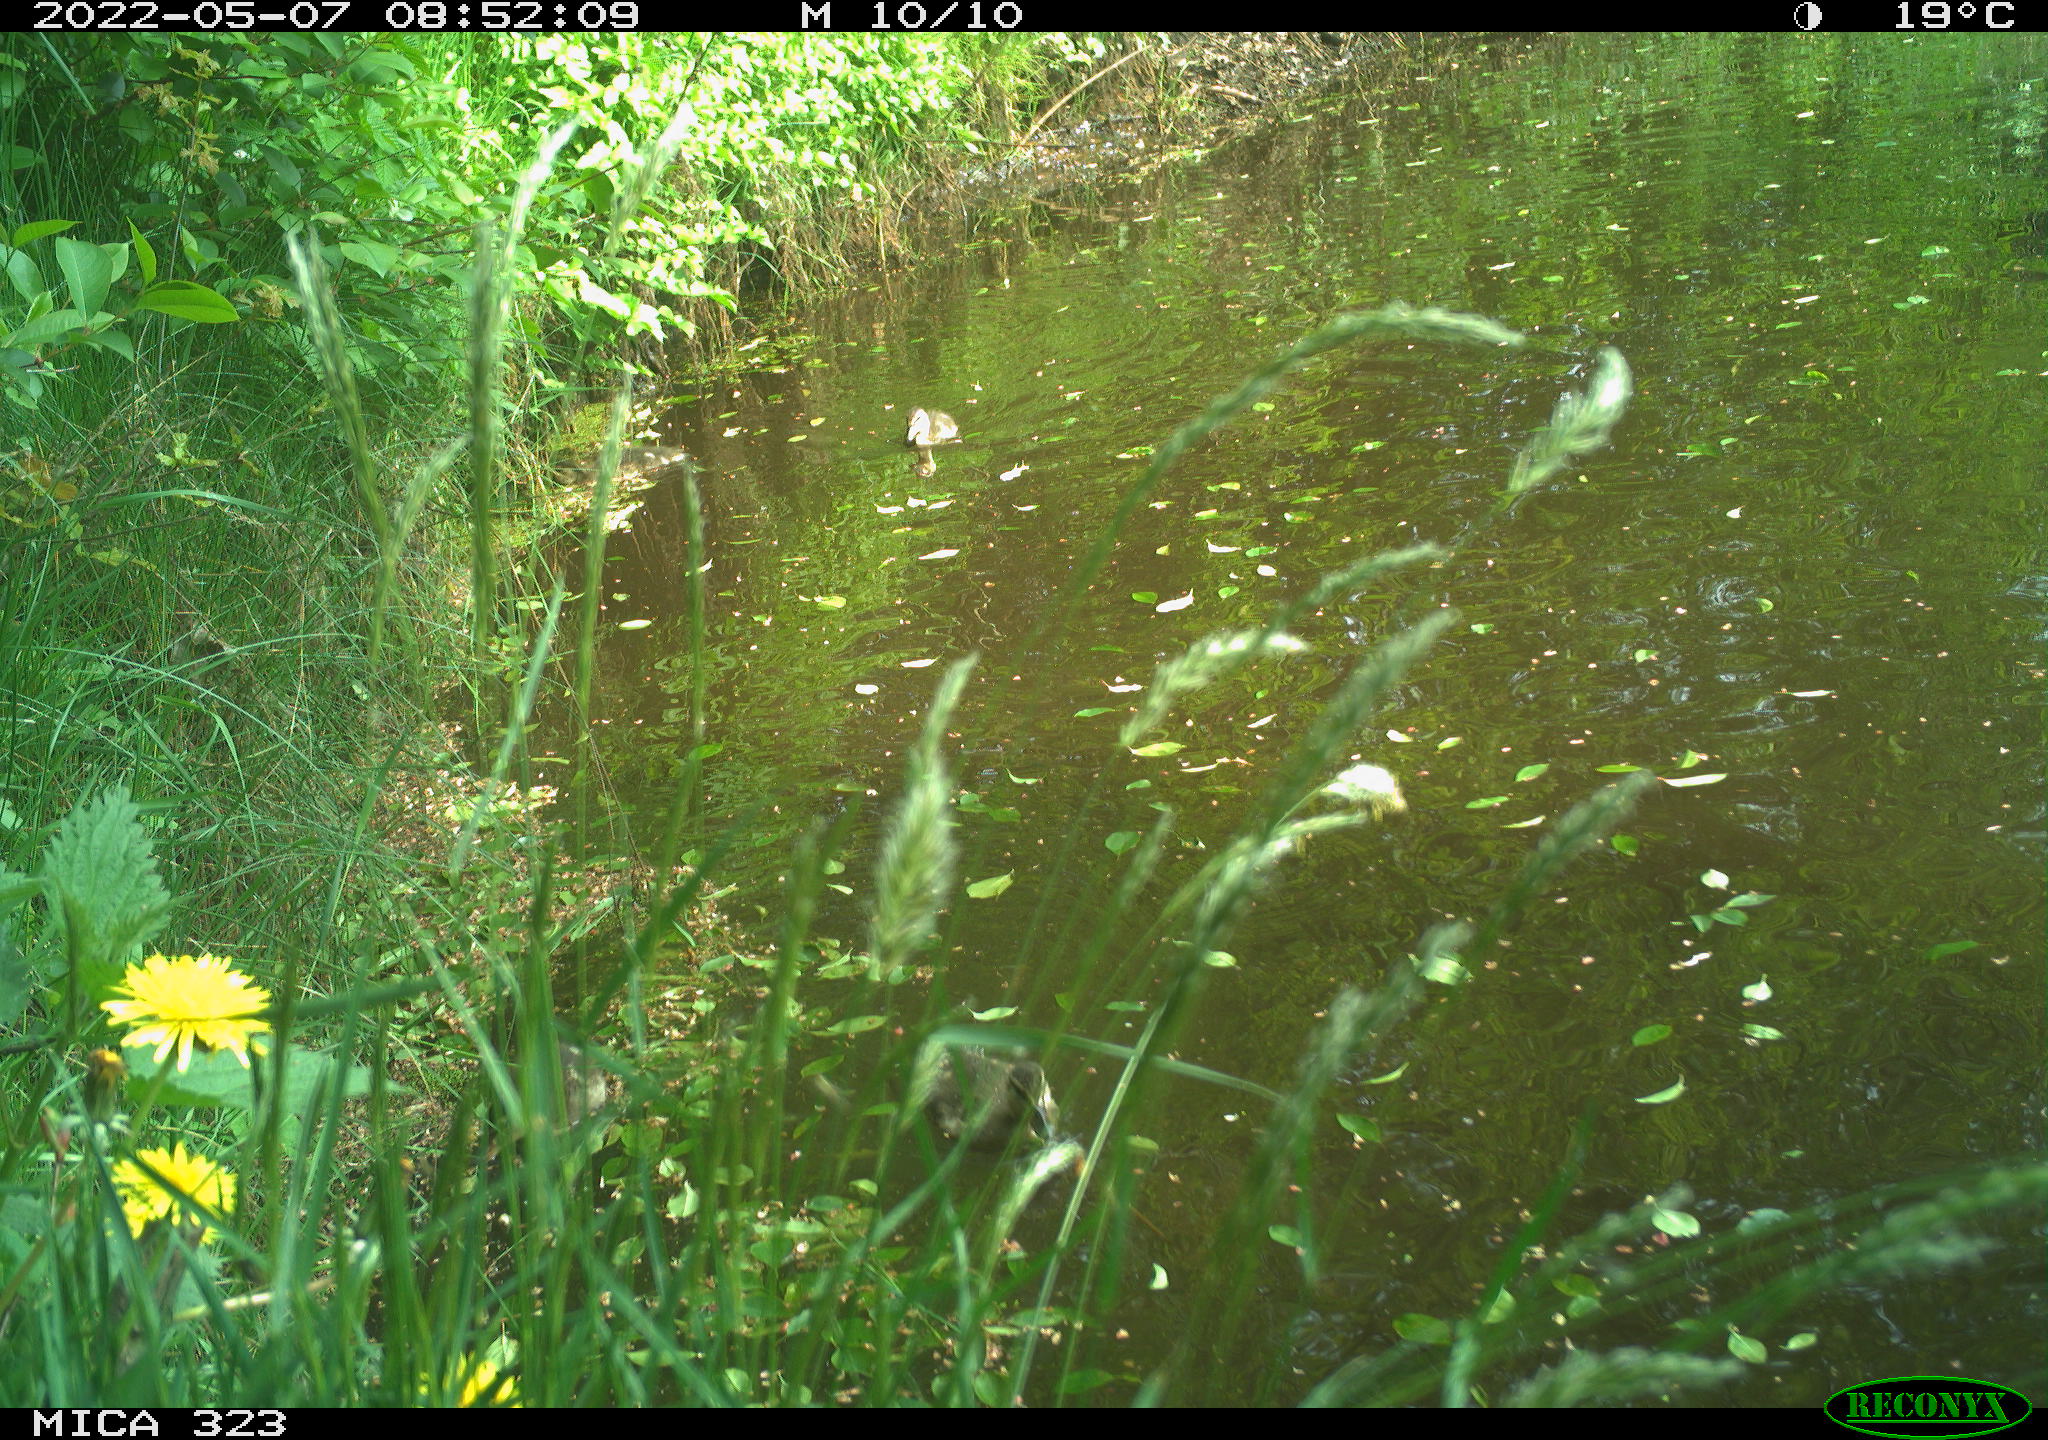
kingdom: Animalia
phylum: Chordata
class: Aves
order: Anseriformes
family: Anatidae
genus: Anas
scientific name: Anas platyrhynchos
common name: Mallard
